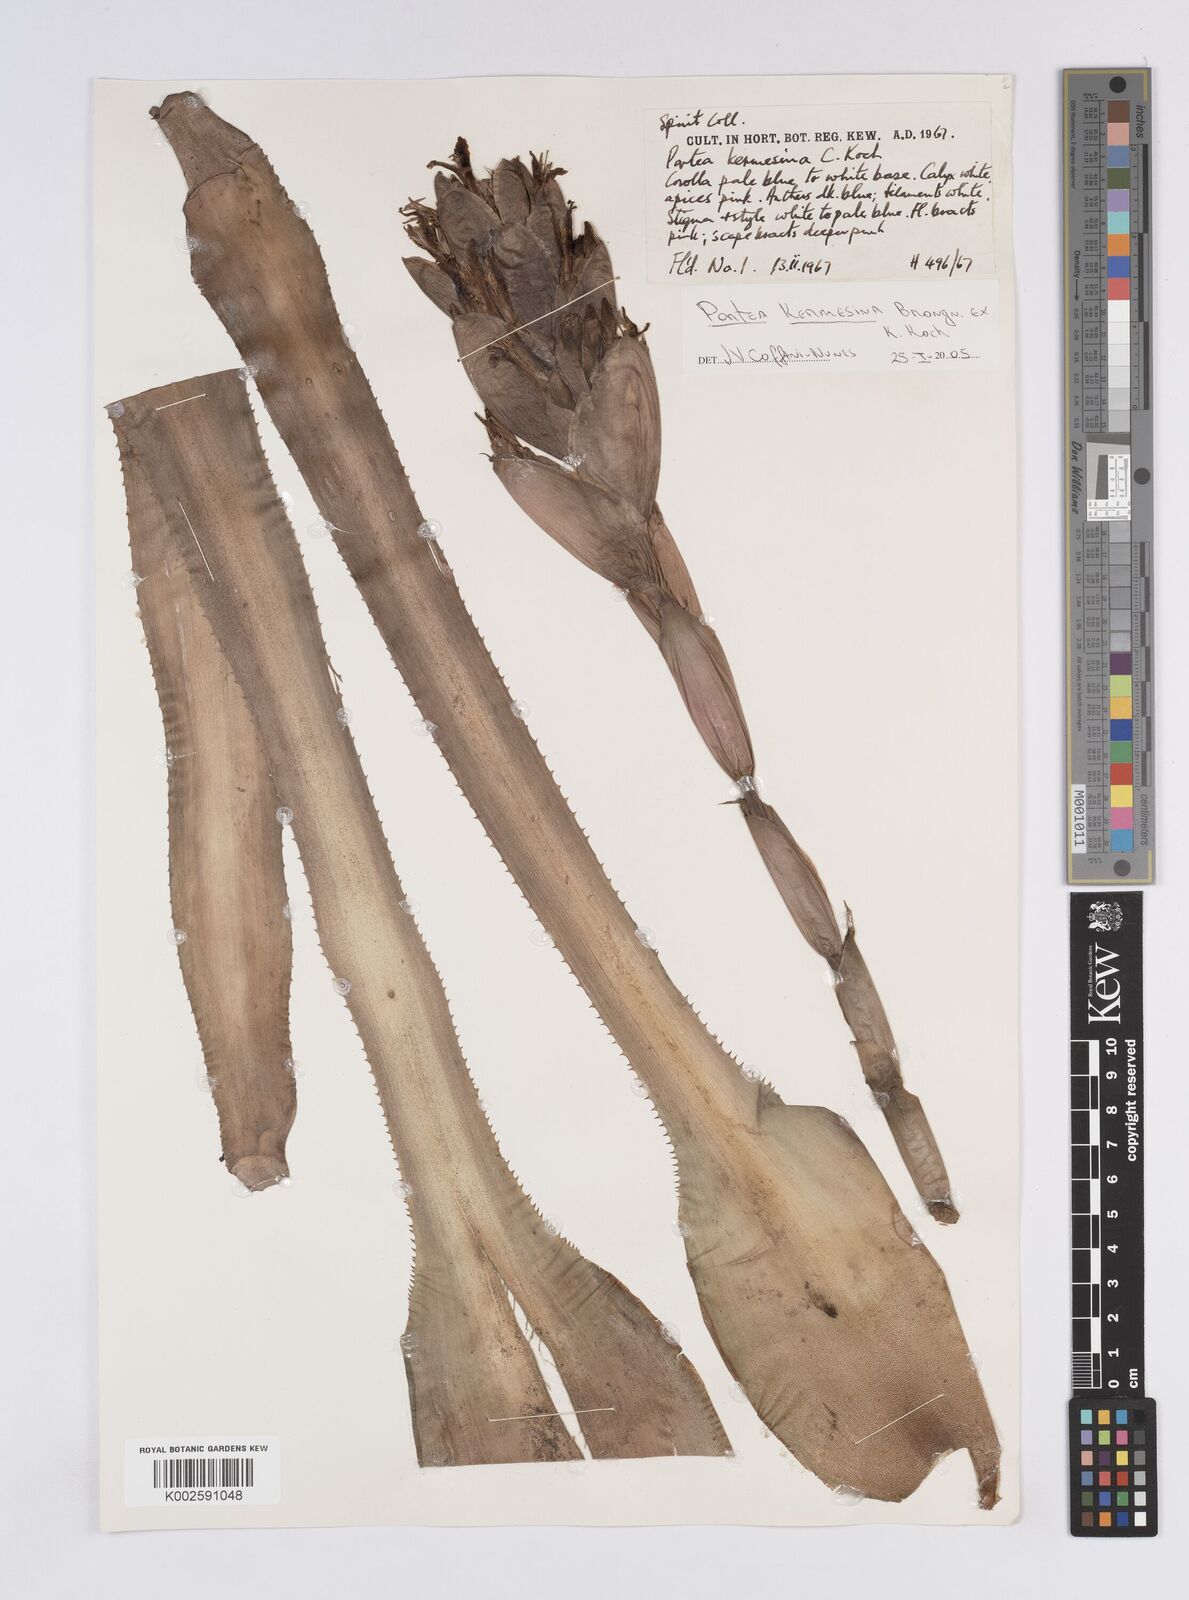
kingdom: Plantae
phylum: Tracheophyta
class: Liliopsida
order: Poales
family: Bromeliaceae
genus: Portea
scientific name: Portea kermesina
